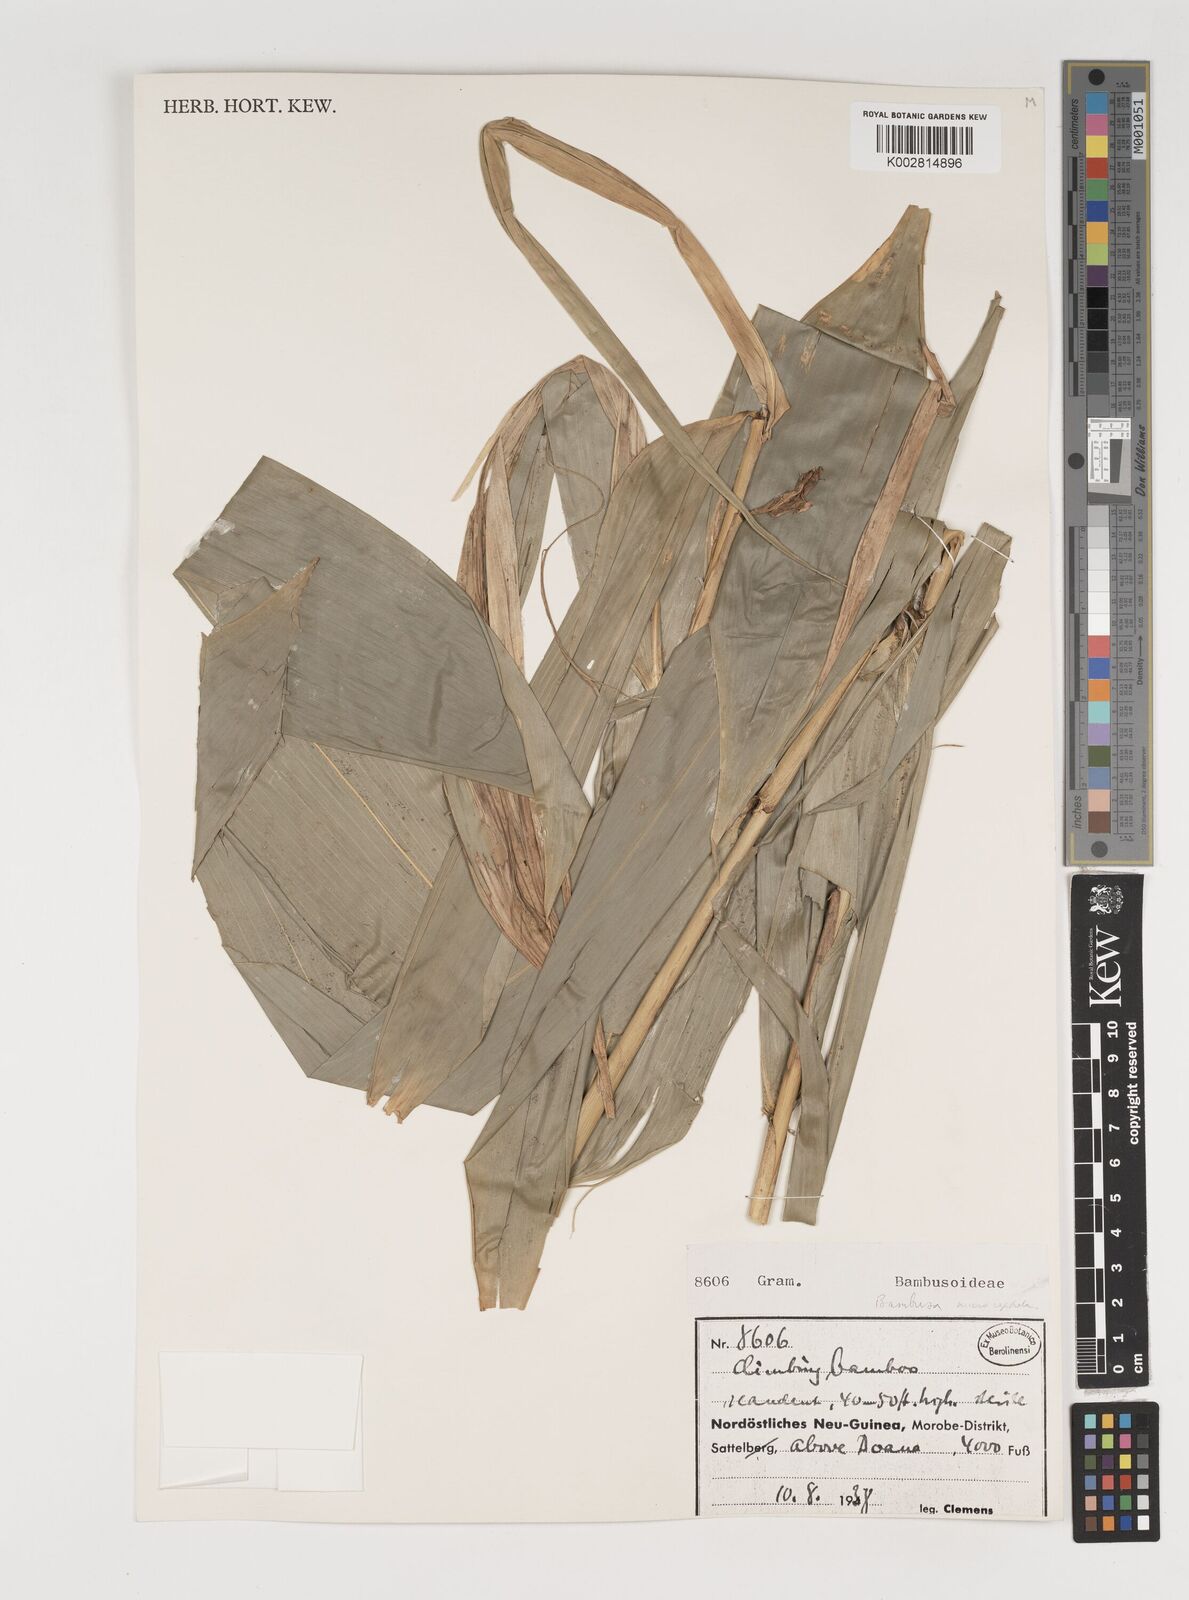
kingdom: Plantae
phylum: Tracheophyta
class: Liliopsida
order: Poales
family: Poaceae
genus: Fimbribambusa
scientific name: Fimbribambusa microcephala
